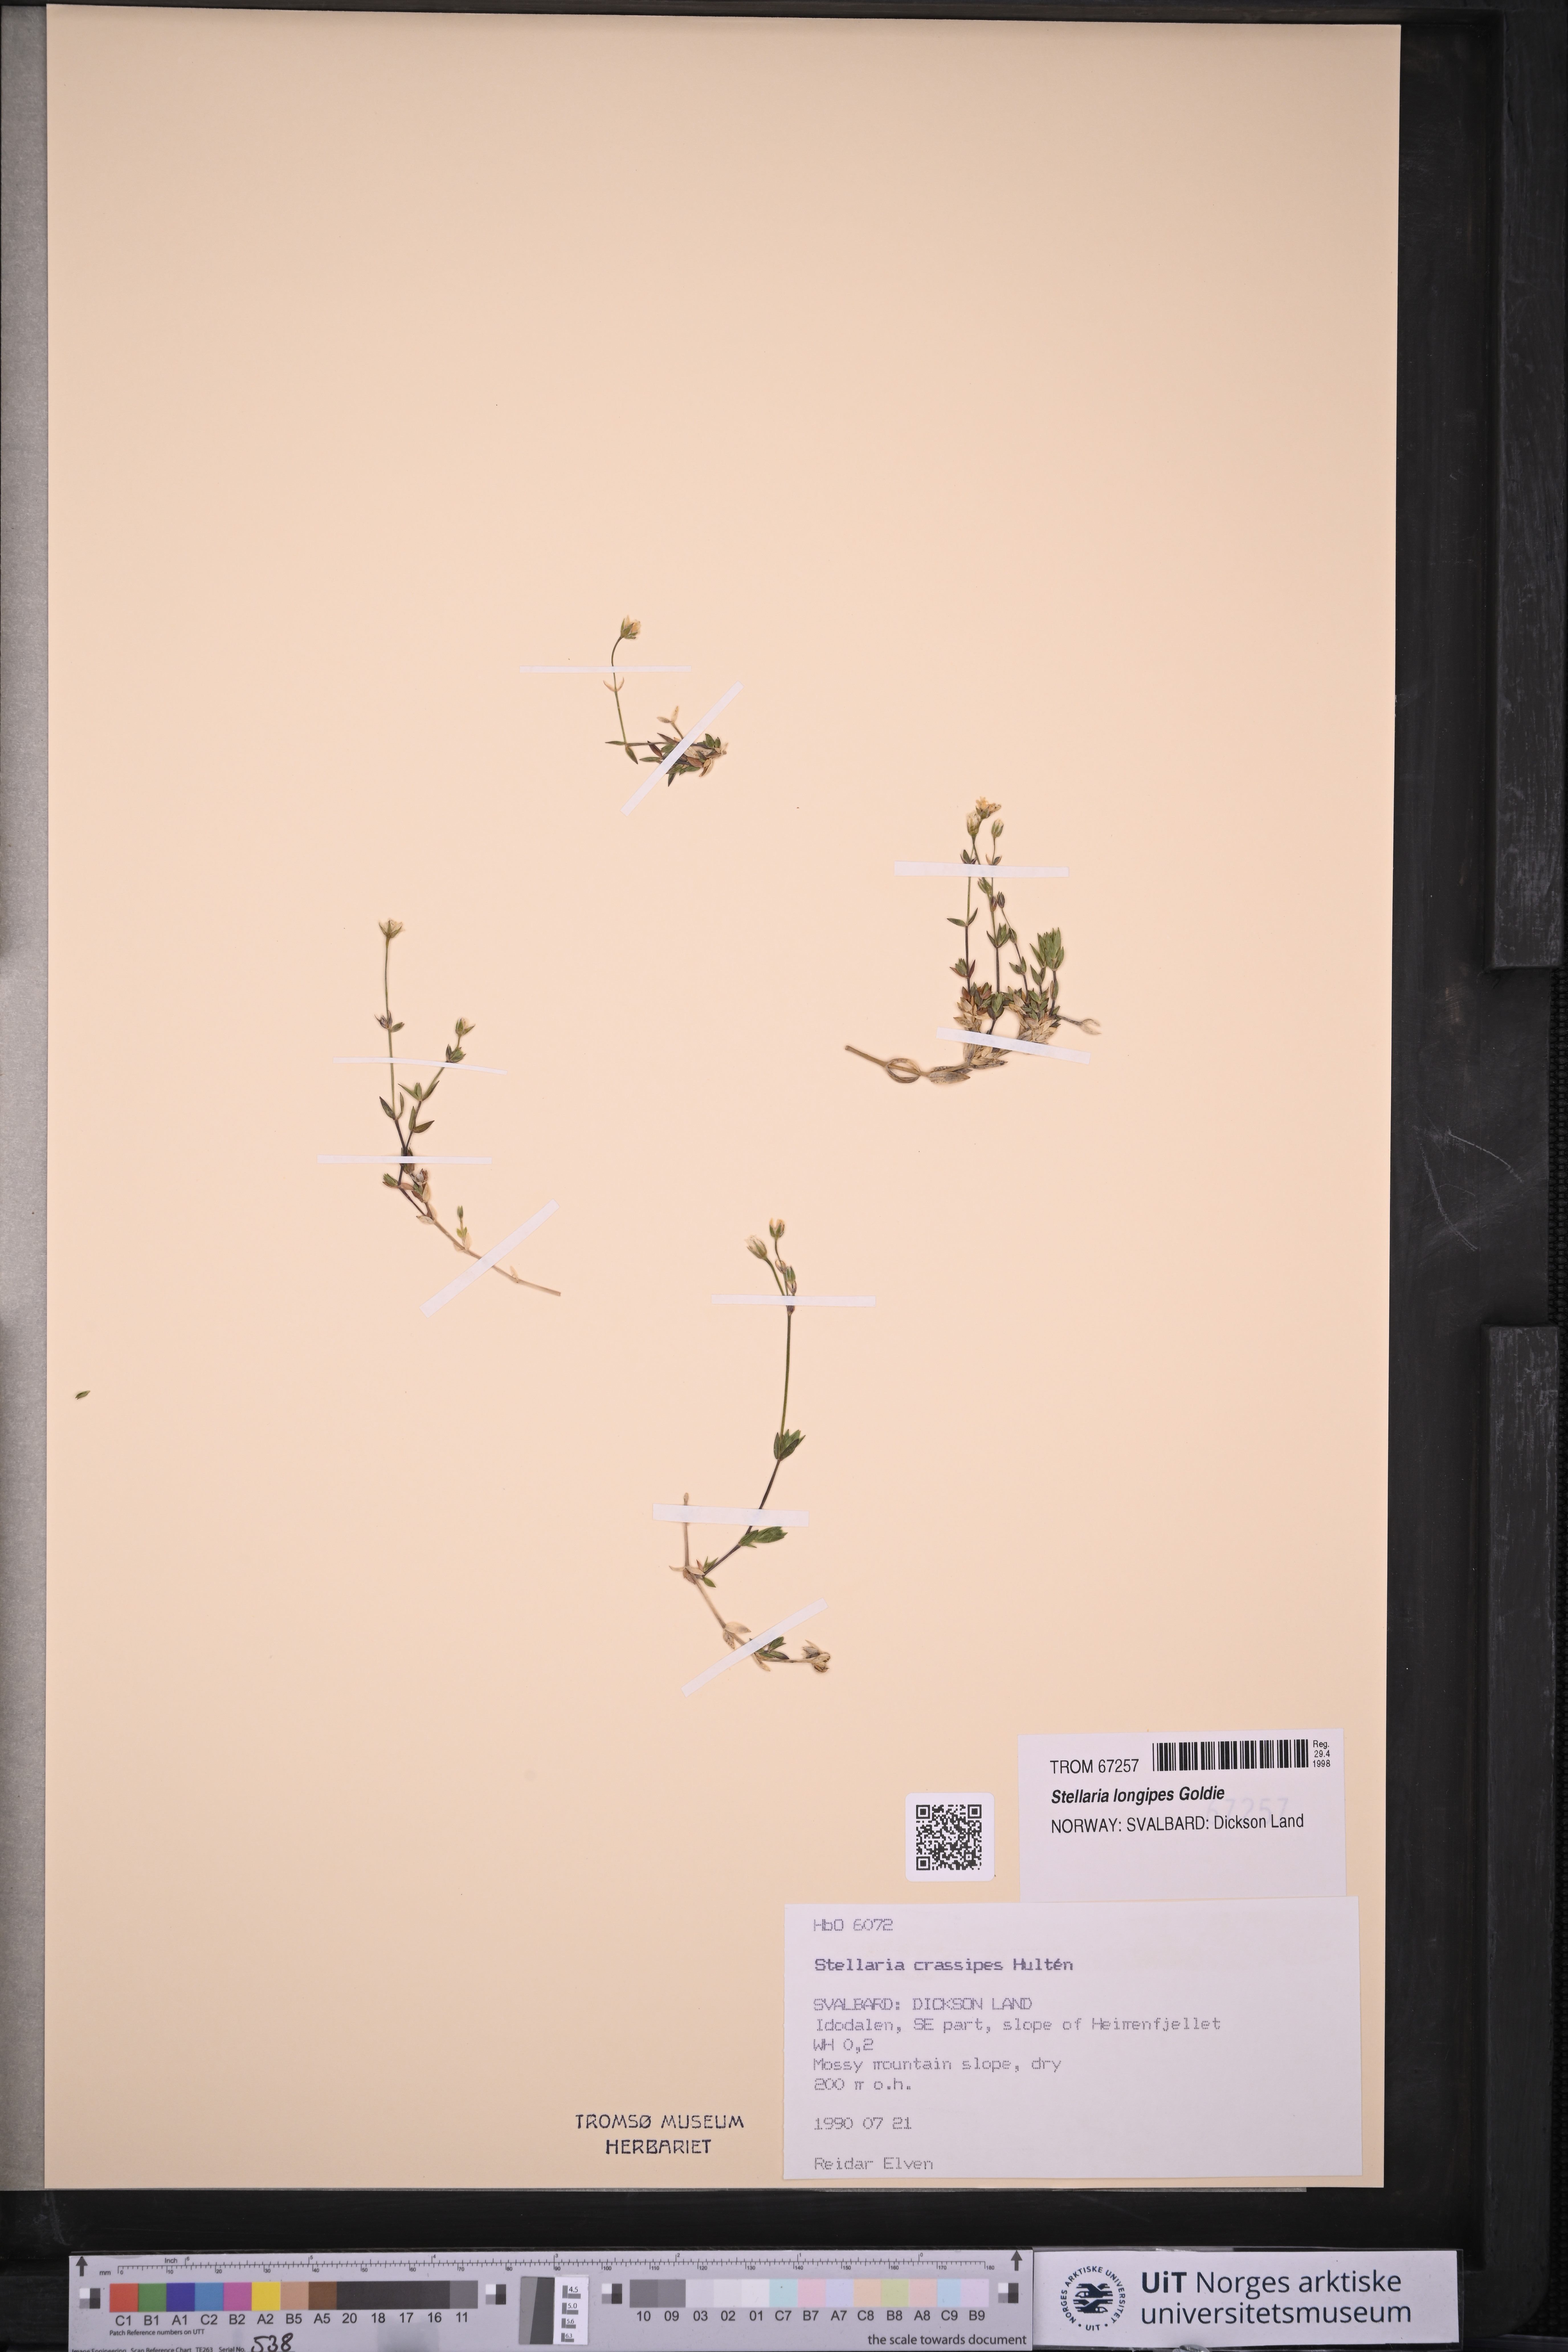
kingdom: Plantae
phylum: Tracheophyta
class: Magnoliopsida
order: Caryophyllales
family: Caryophyllaceae
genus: Stellaria
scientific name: Stellaria longipes
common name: Goldie's starwort
